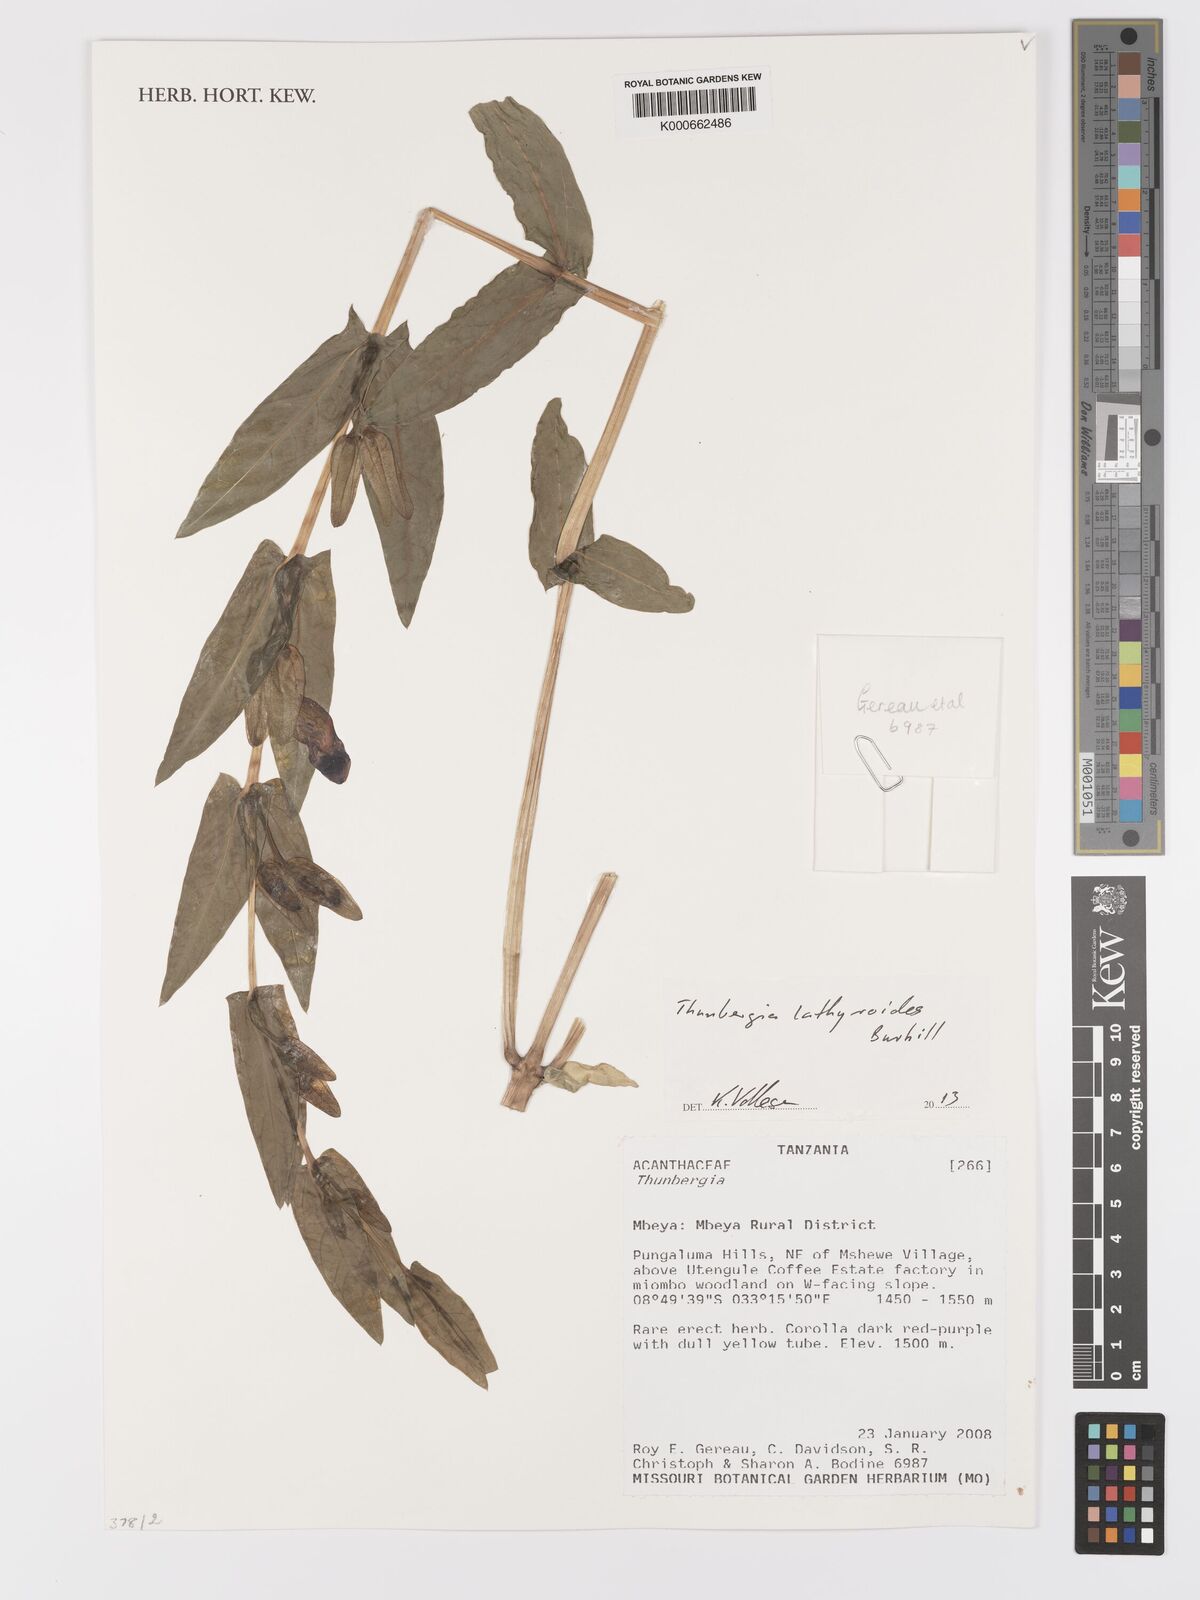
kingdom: Plantae
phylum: Tracheophyta
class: Magnoliopsida
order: Lamiales
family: Acanthaceae
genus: Thunbergia
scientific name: Thunbergia lathyroides
